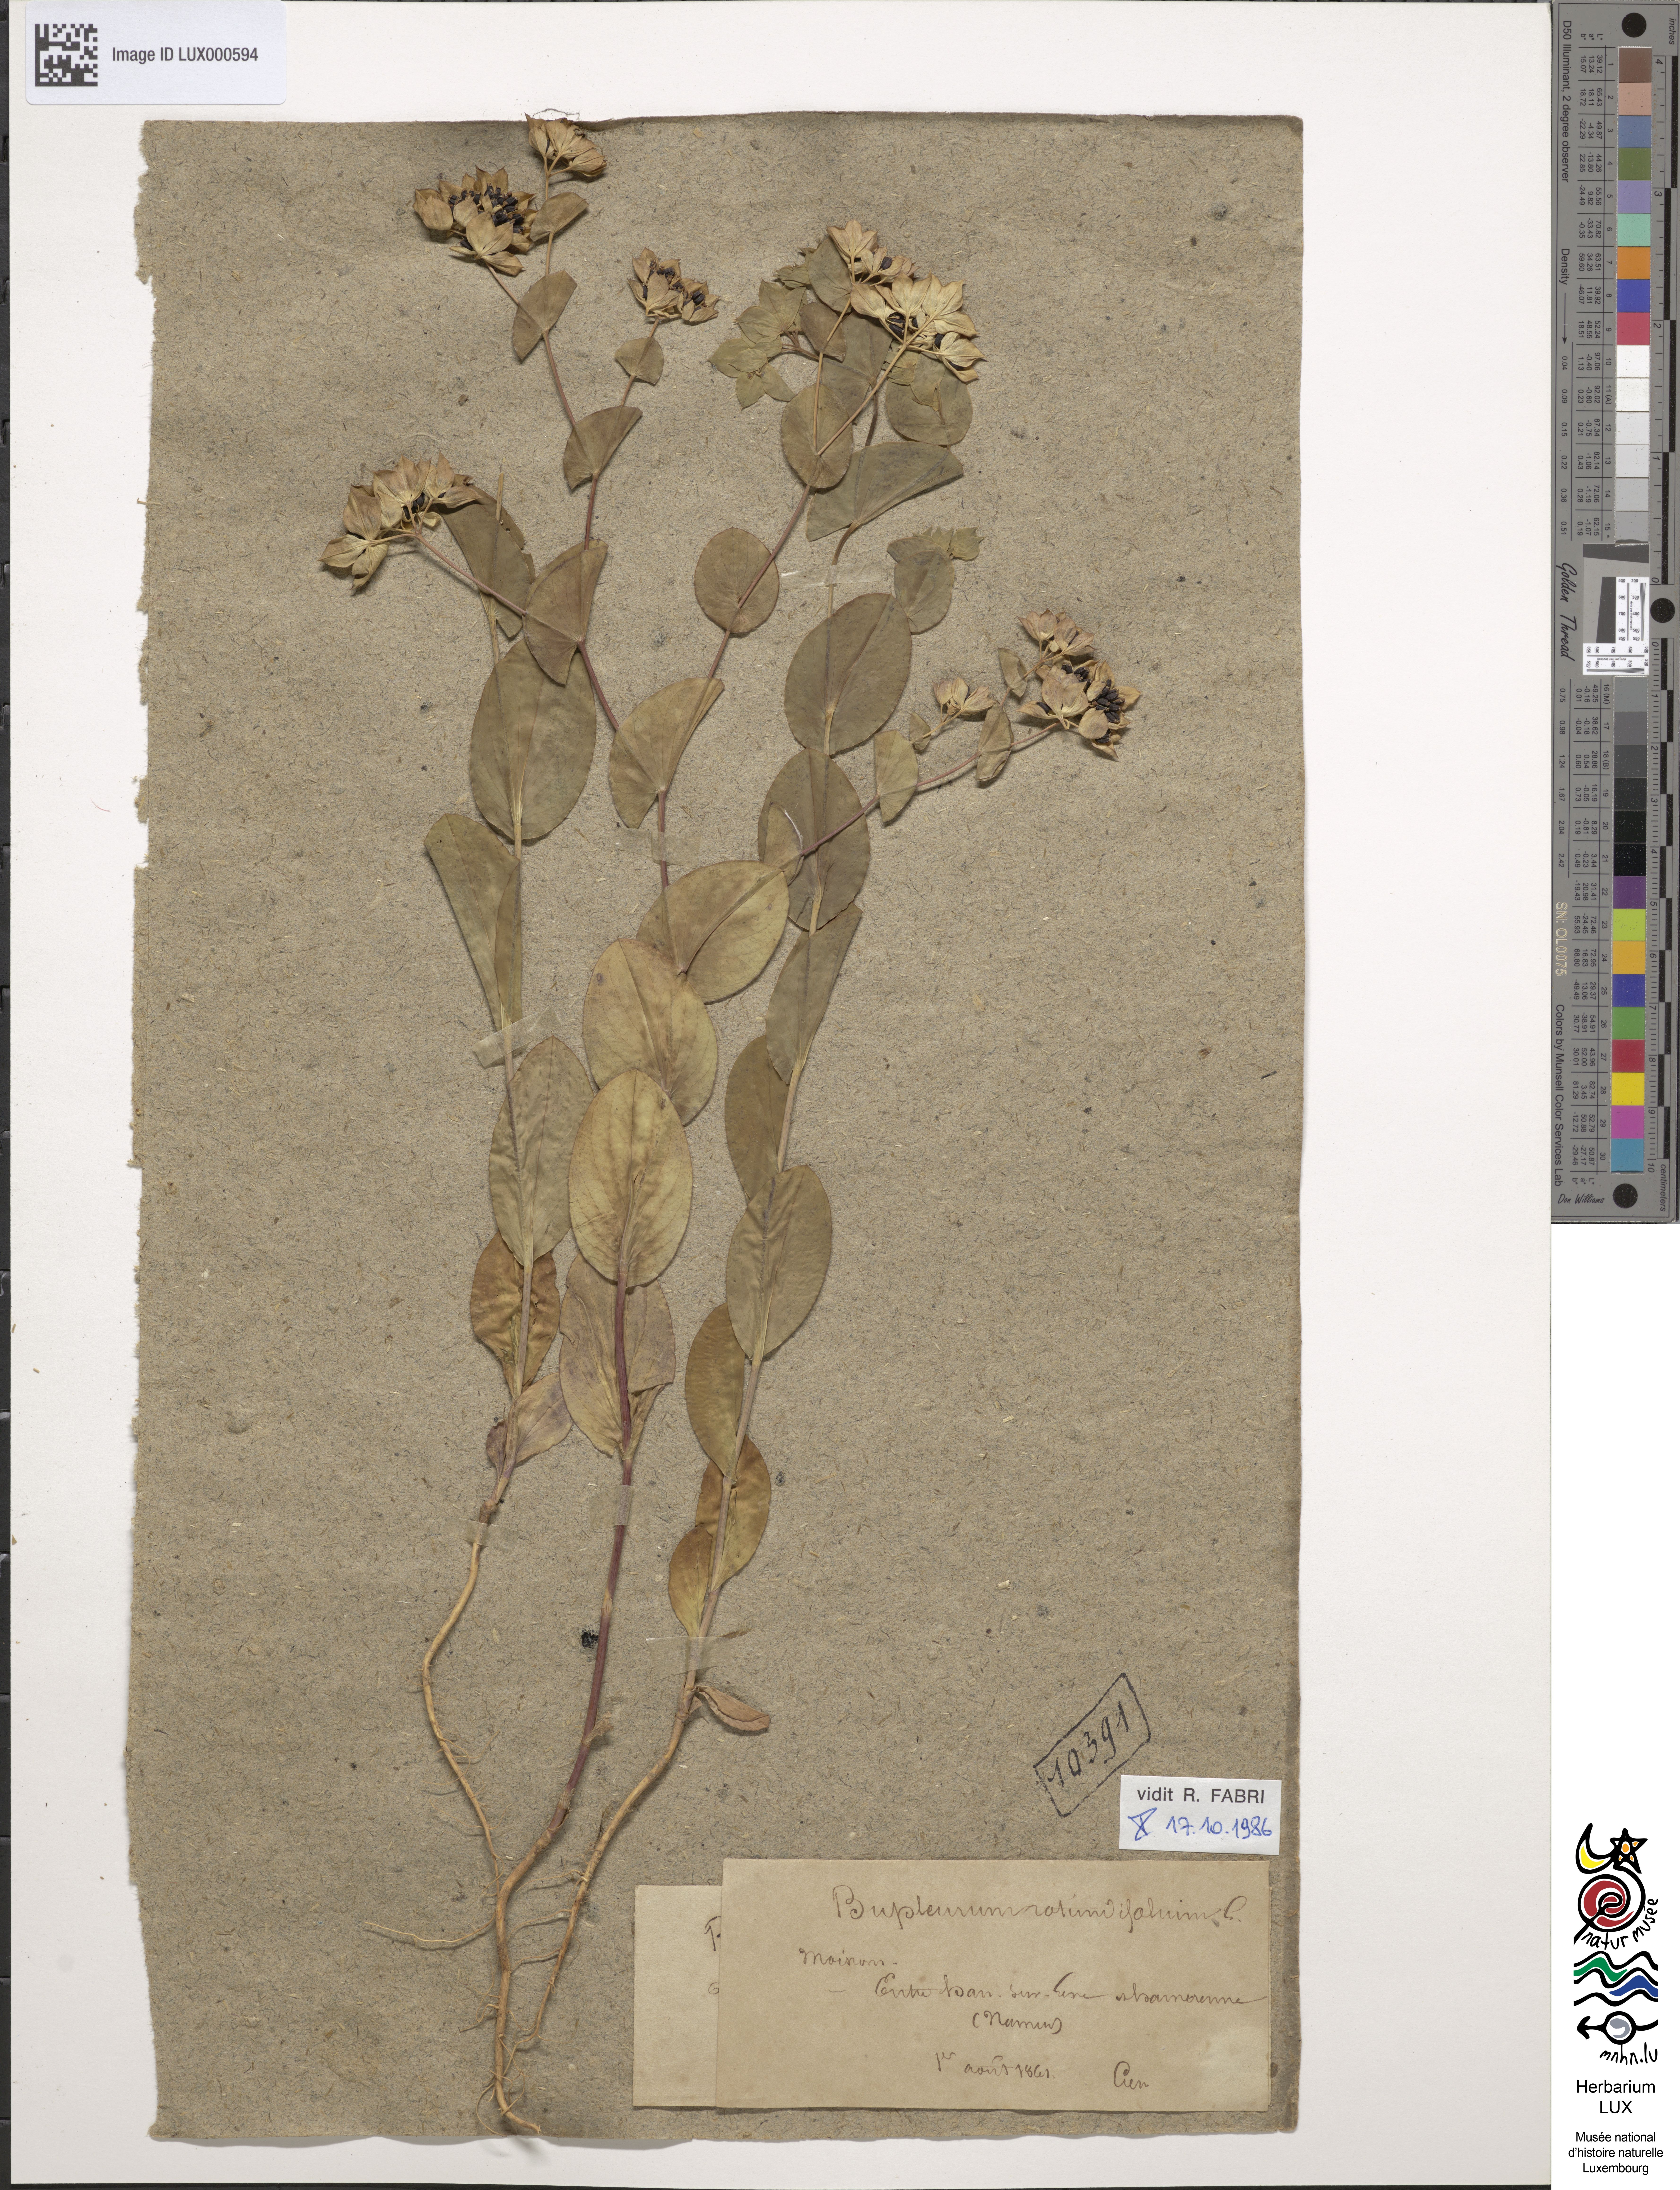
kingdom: Plantae
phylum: Tracheophyta
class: Magnoliopsida
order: Apiales
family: Apiaceae
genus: Bupleurum
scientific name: Bupleurum rotundifolium
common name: Thorow-wax
